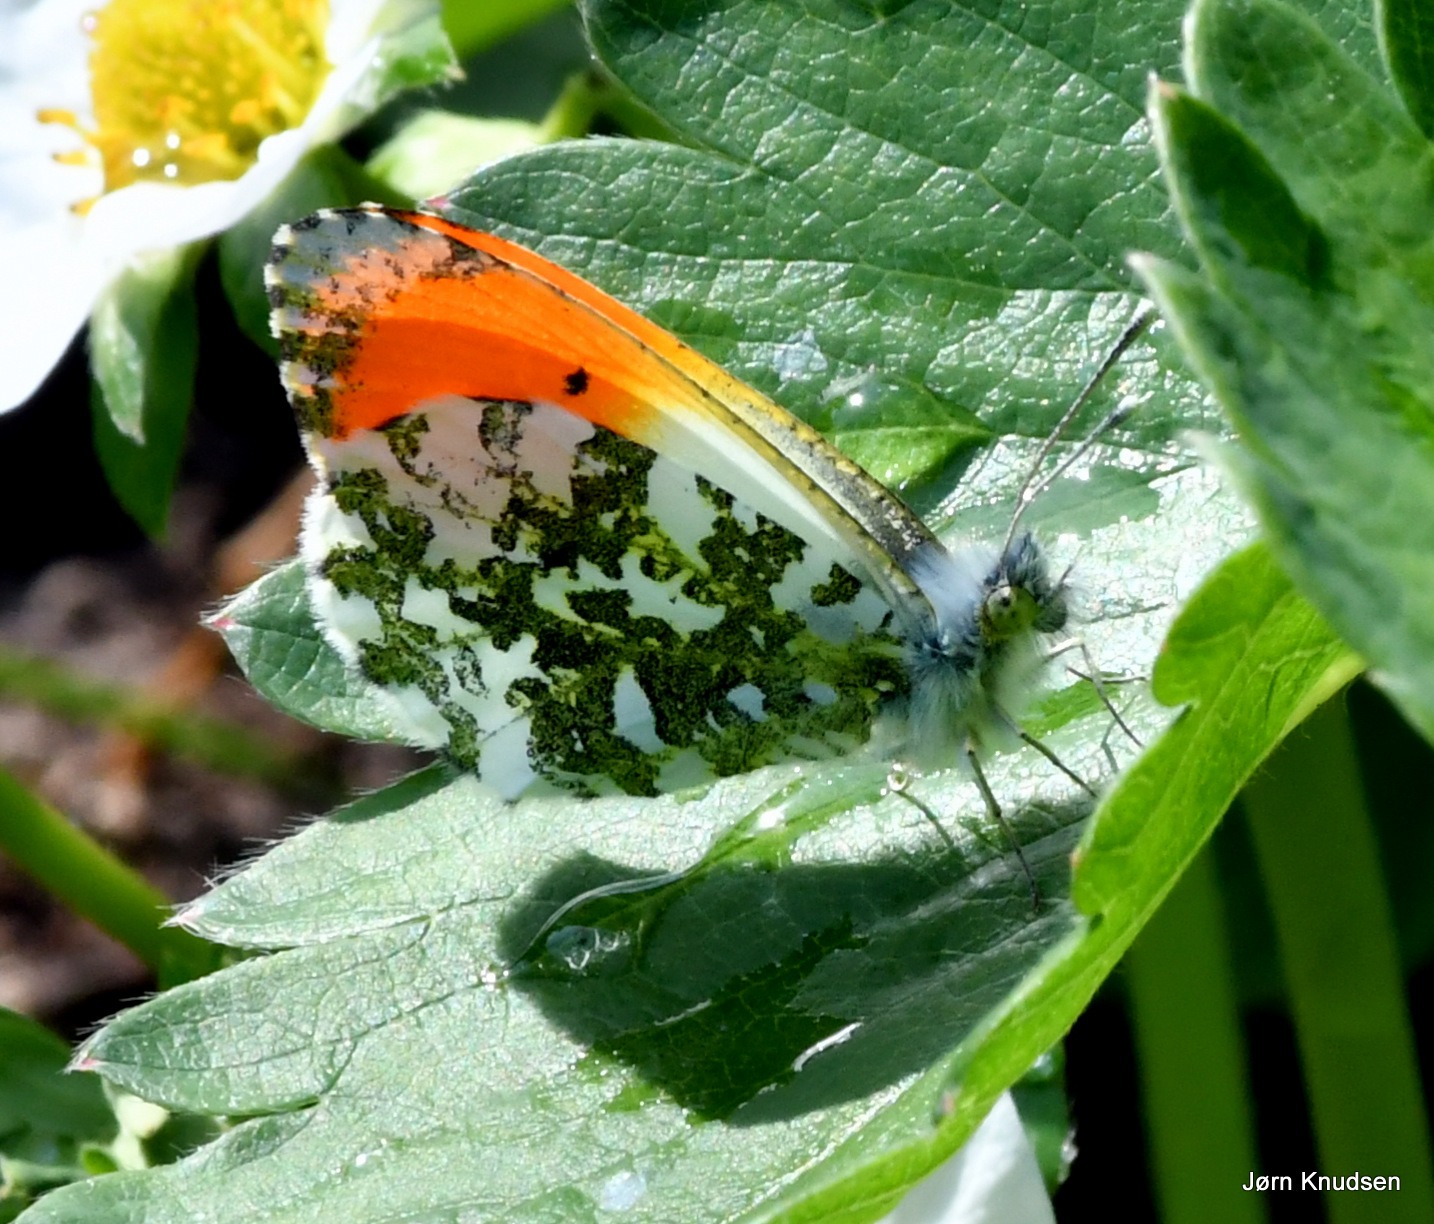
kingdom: Animalia
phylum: Arthropoda
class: Insecta
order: Lepidoptera
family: Pieridae
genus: Anthocharis
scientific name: Anthocharis cardamines
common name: Aurora
